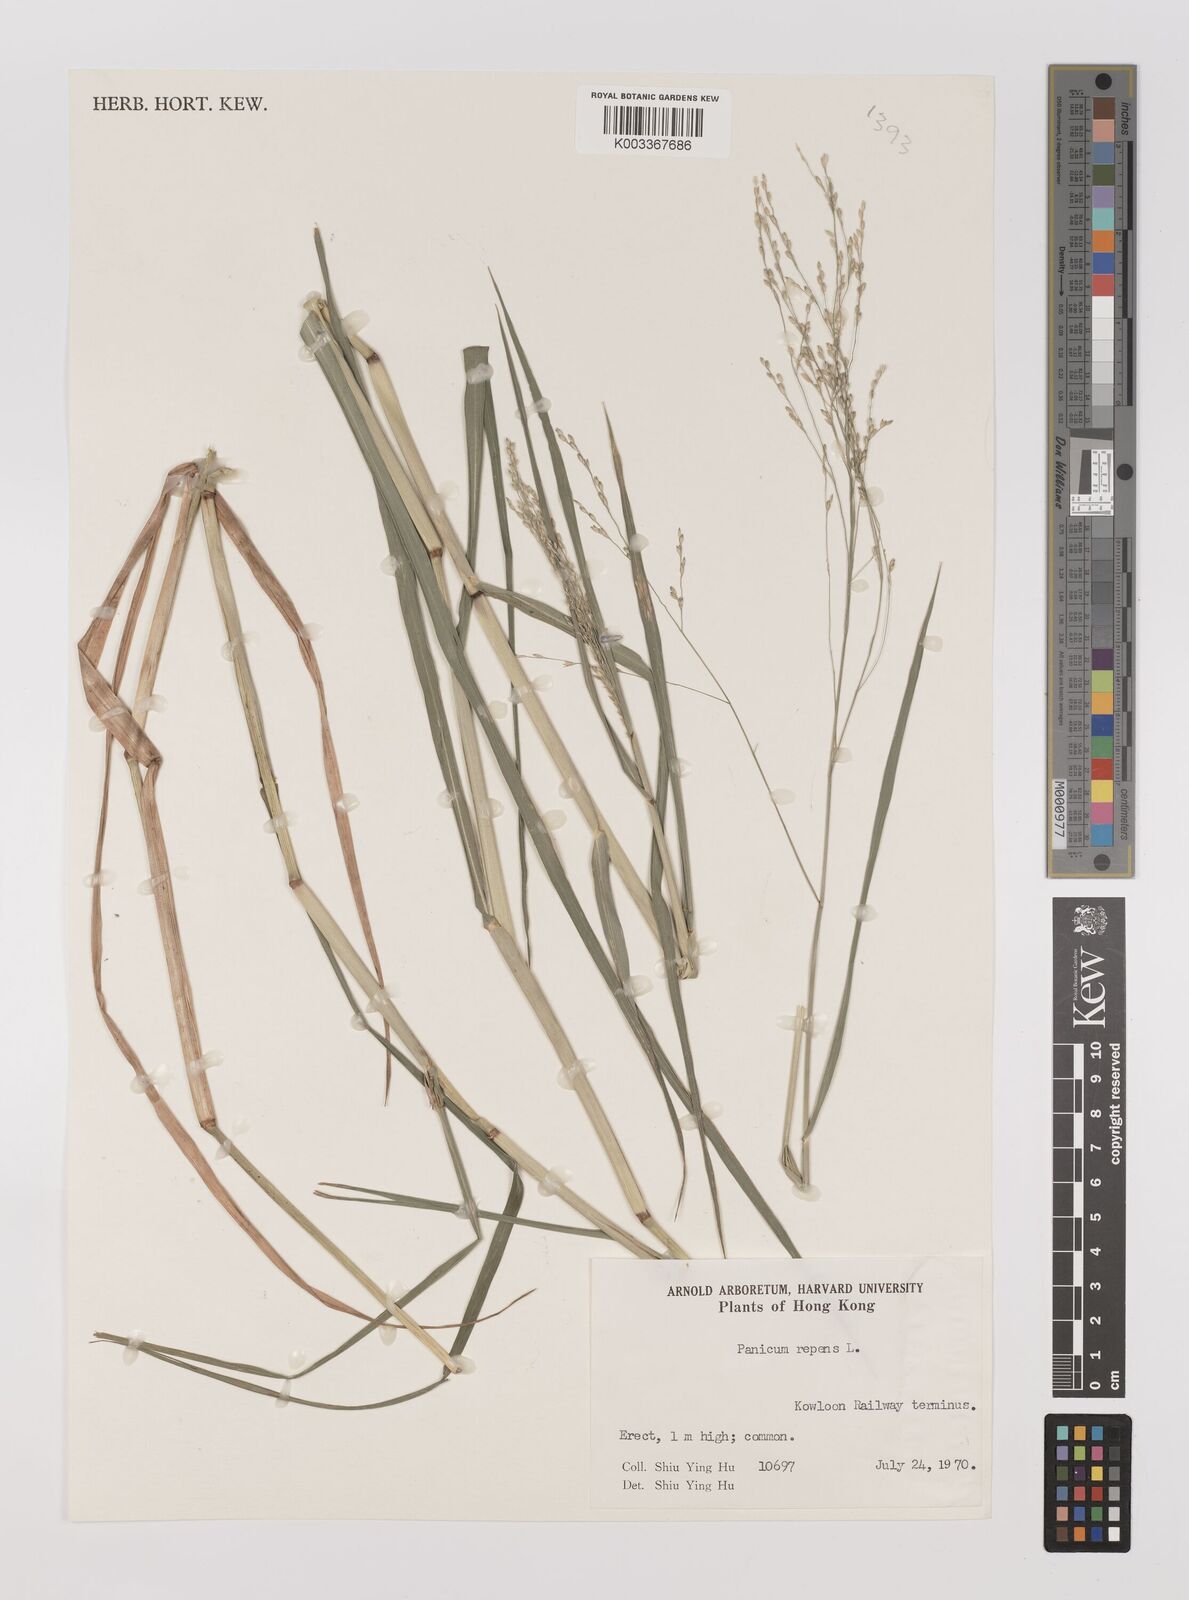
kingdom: Plantae
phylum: Tracheophyta
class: Liliopsida
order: Poales
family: Poaceae
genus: Panicum
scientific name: Panicum repens
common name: Torpedo grass
